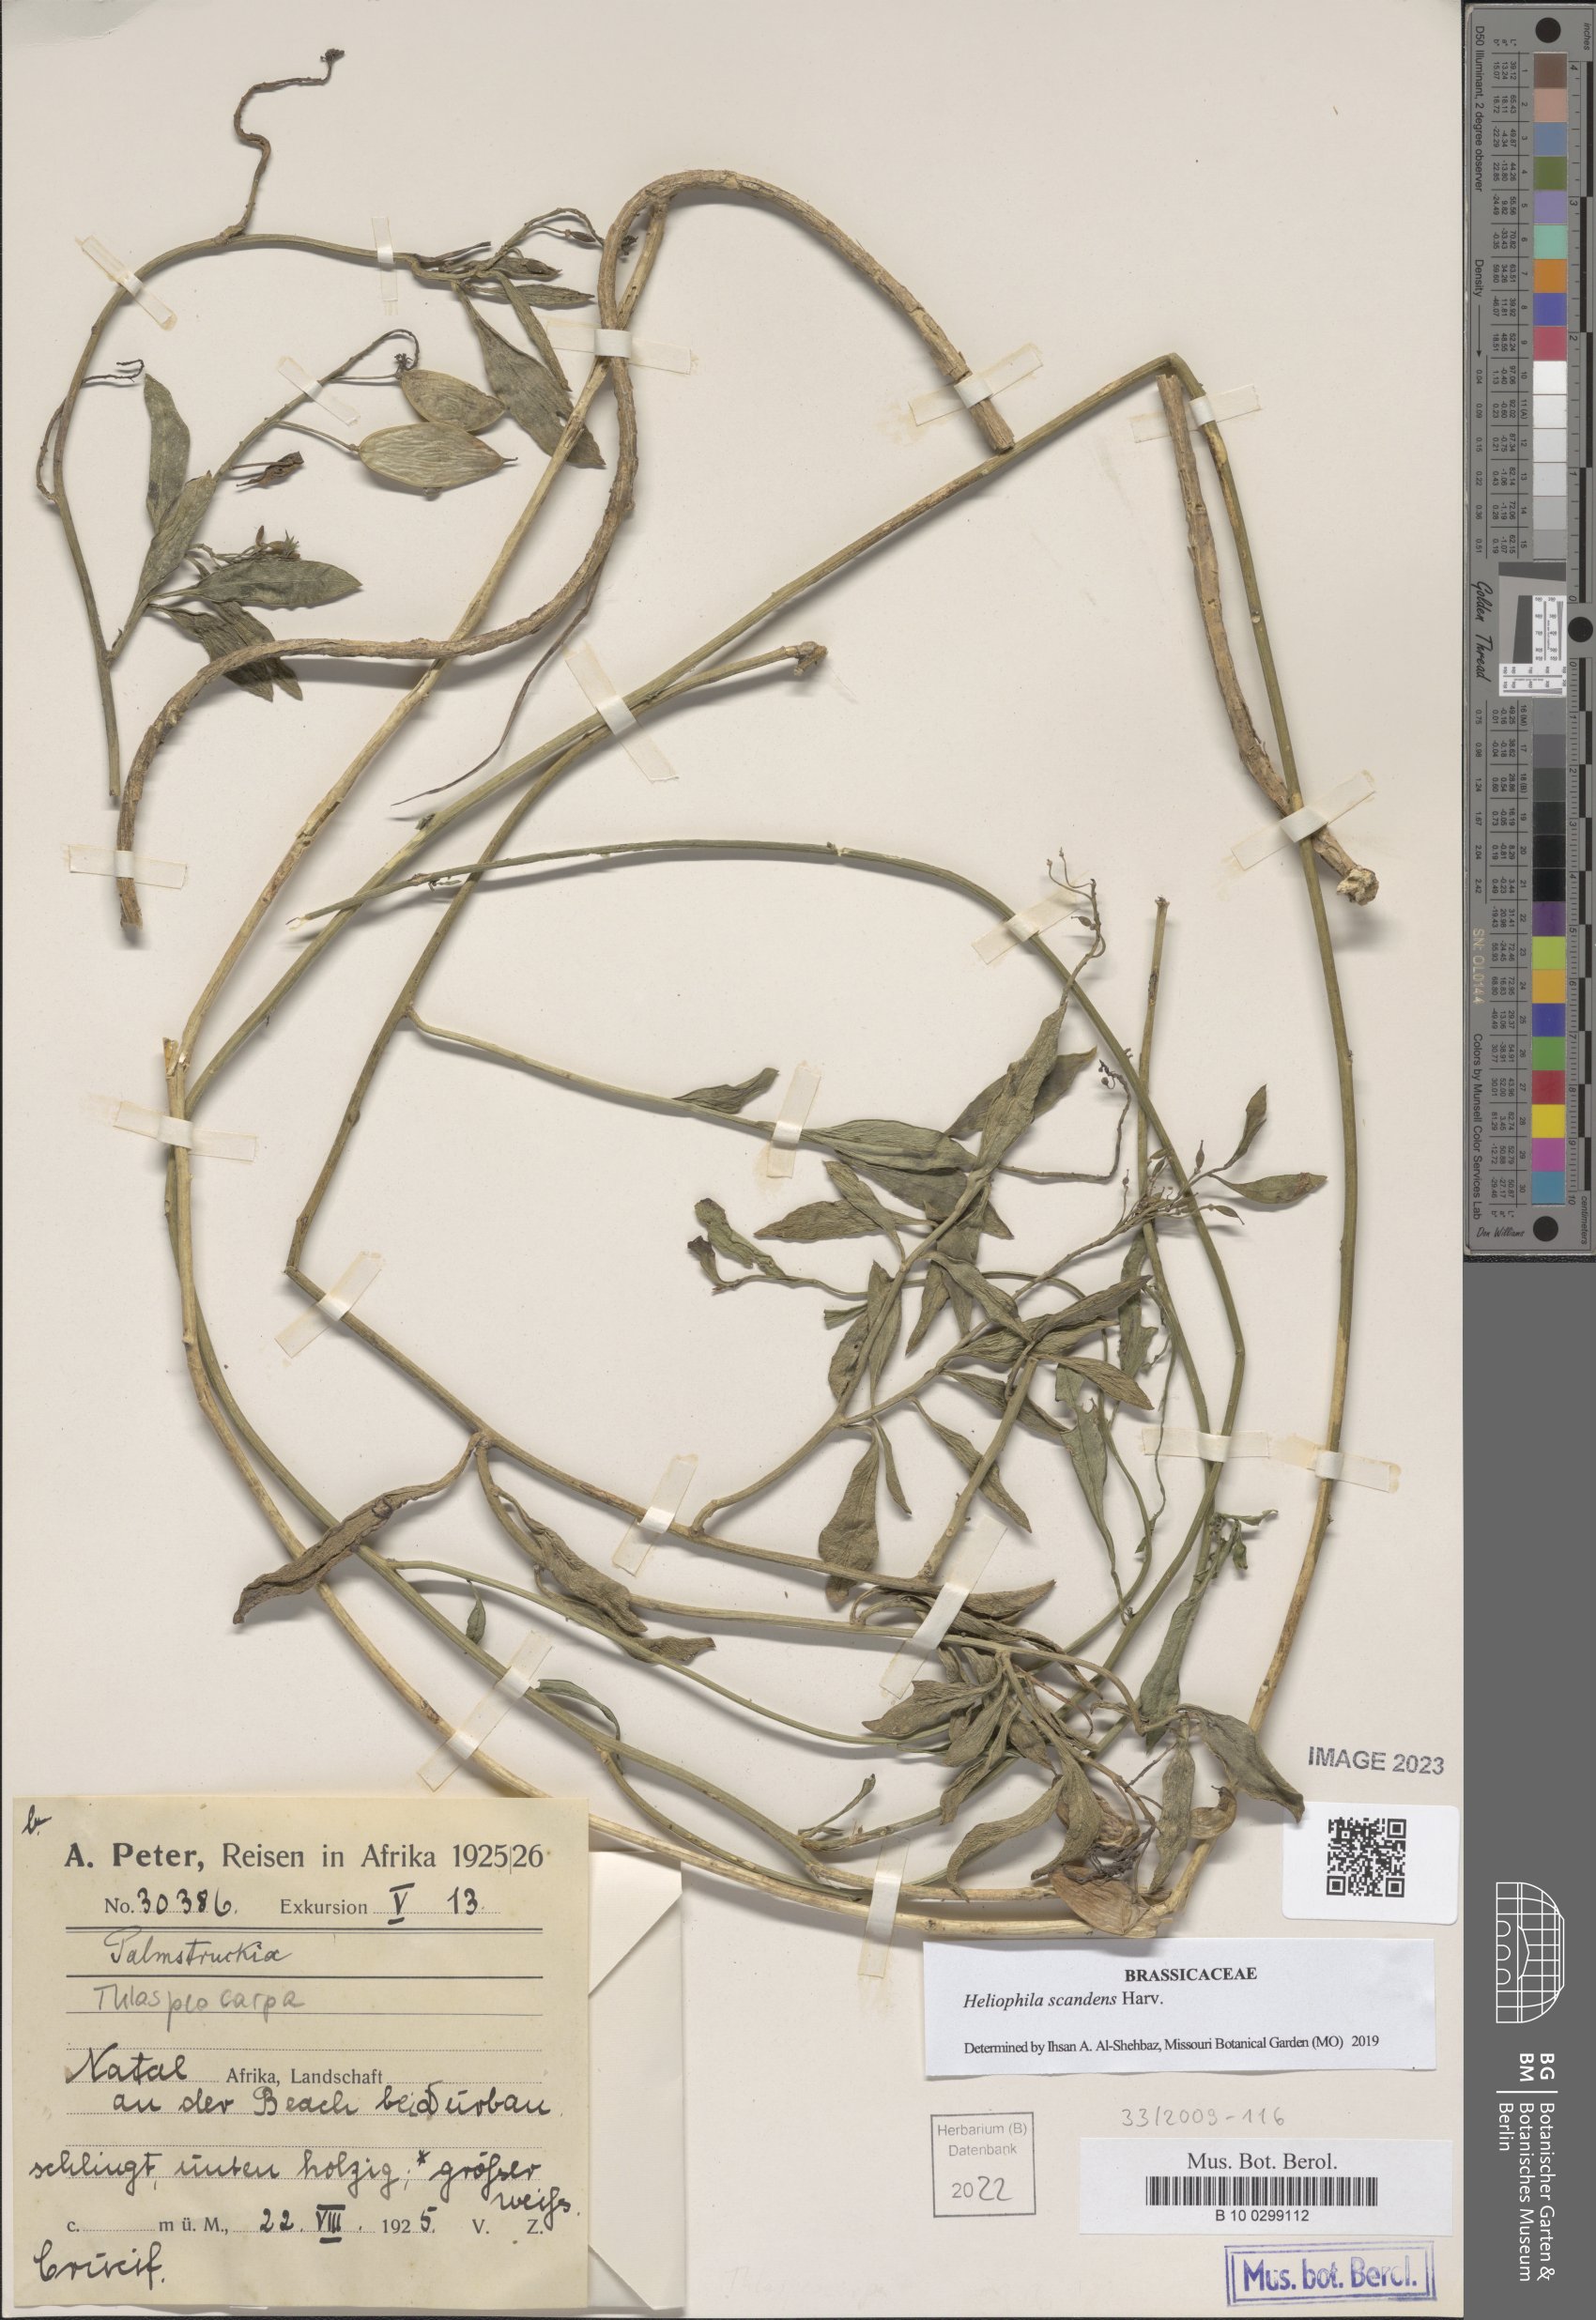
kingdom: Plantae
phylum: Tracheophyta
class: Magnoliopsida
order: Brassicales
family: Brassicaceae
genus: Heliophila
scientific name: Heliophila scandens
